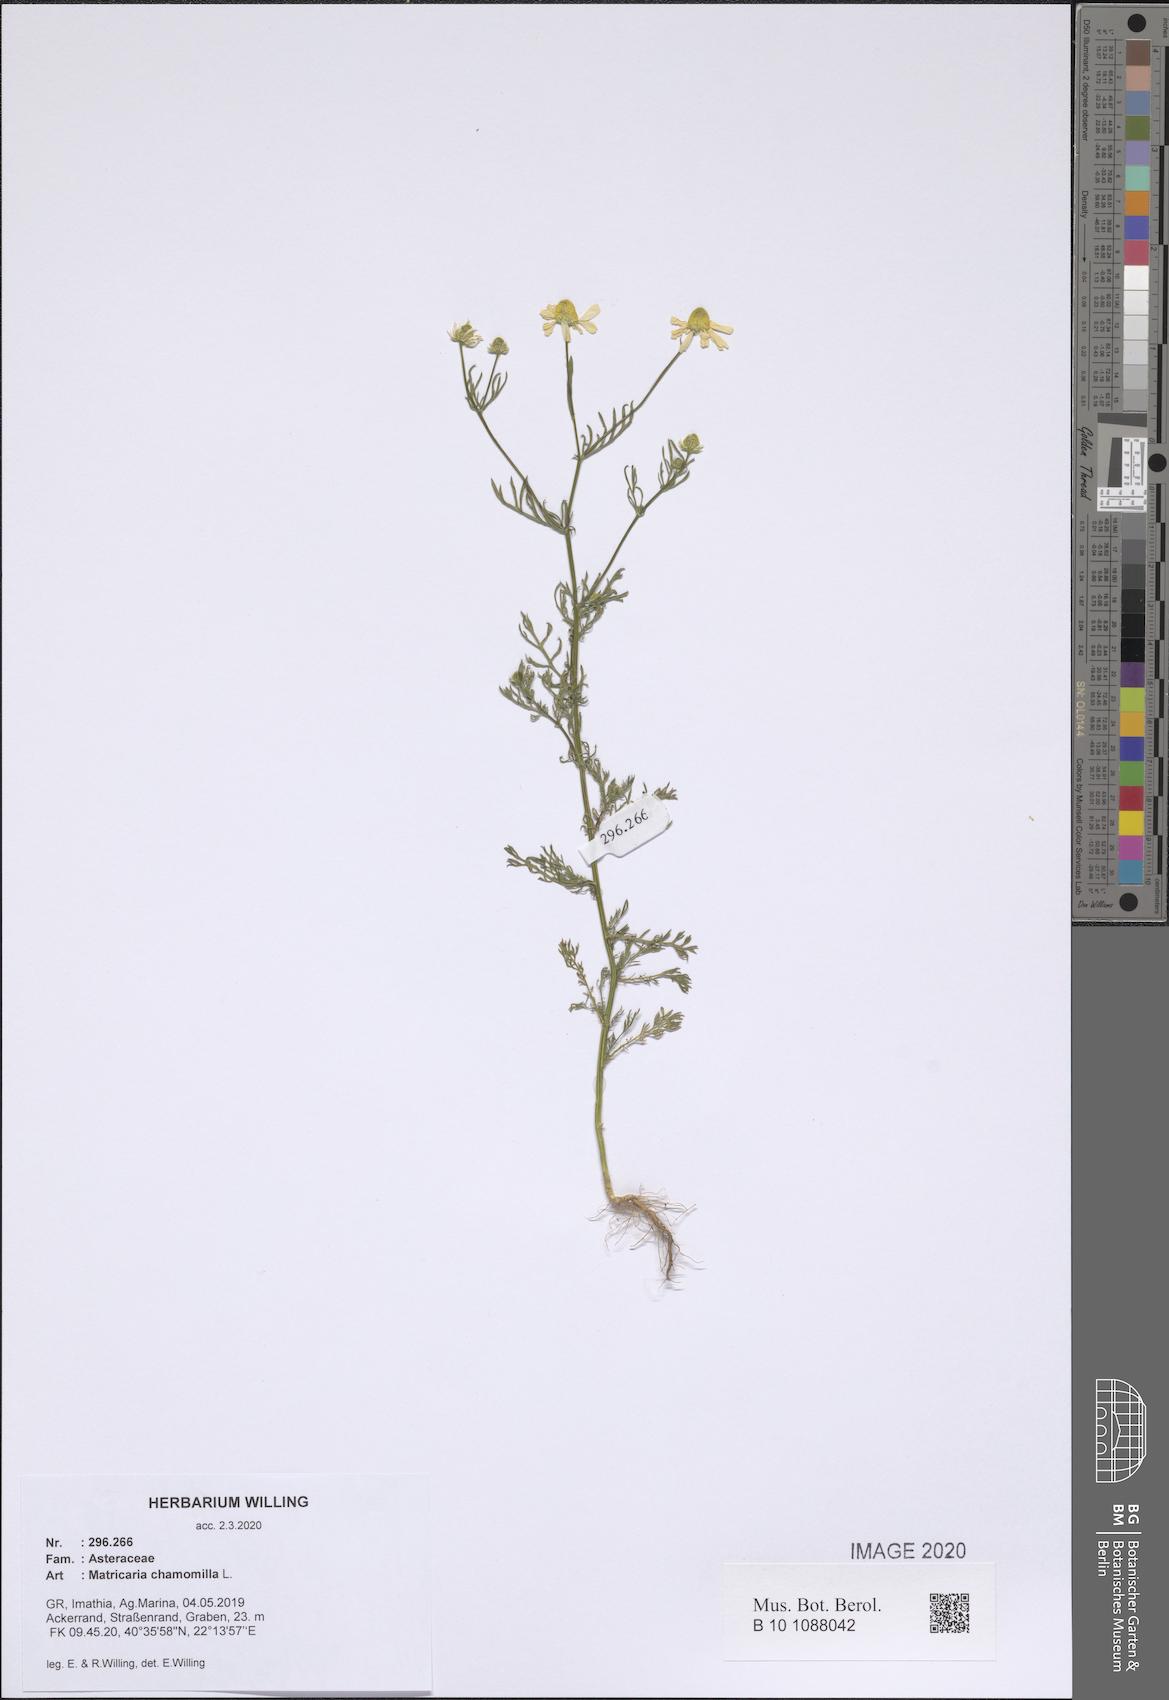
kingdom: Plantae
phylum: Tracheophyta
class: Magnoliopsida
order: Asterales
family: Asteraceae
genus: Matricaria
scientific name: Matricaria chamomilla
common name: Scented mayweed
